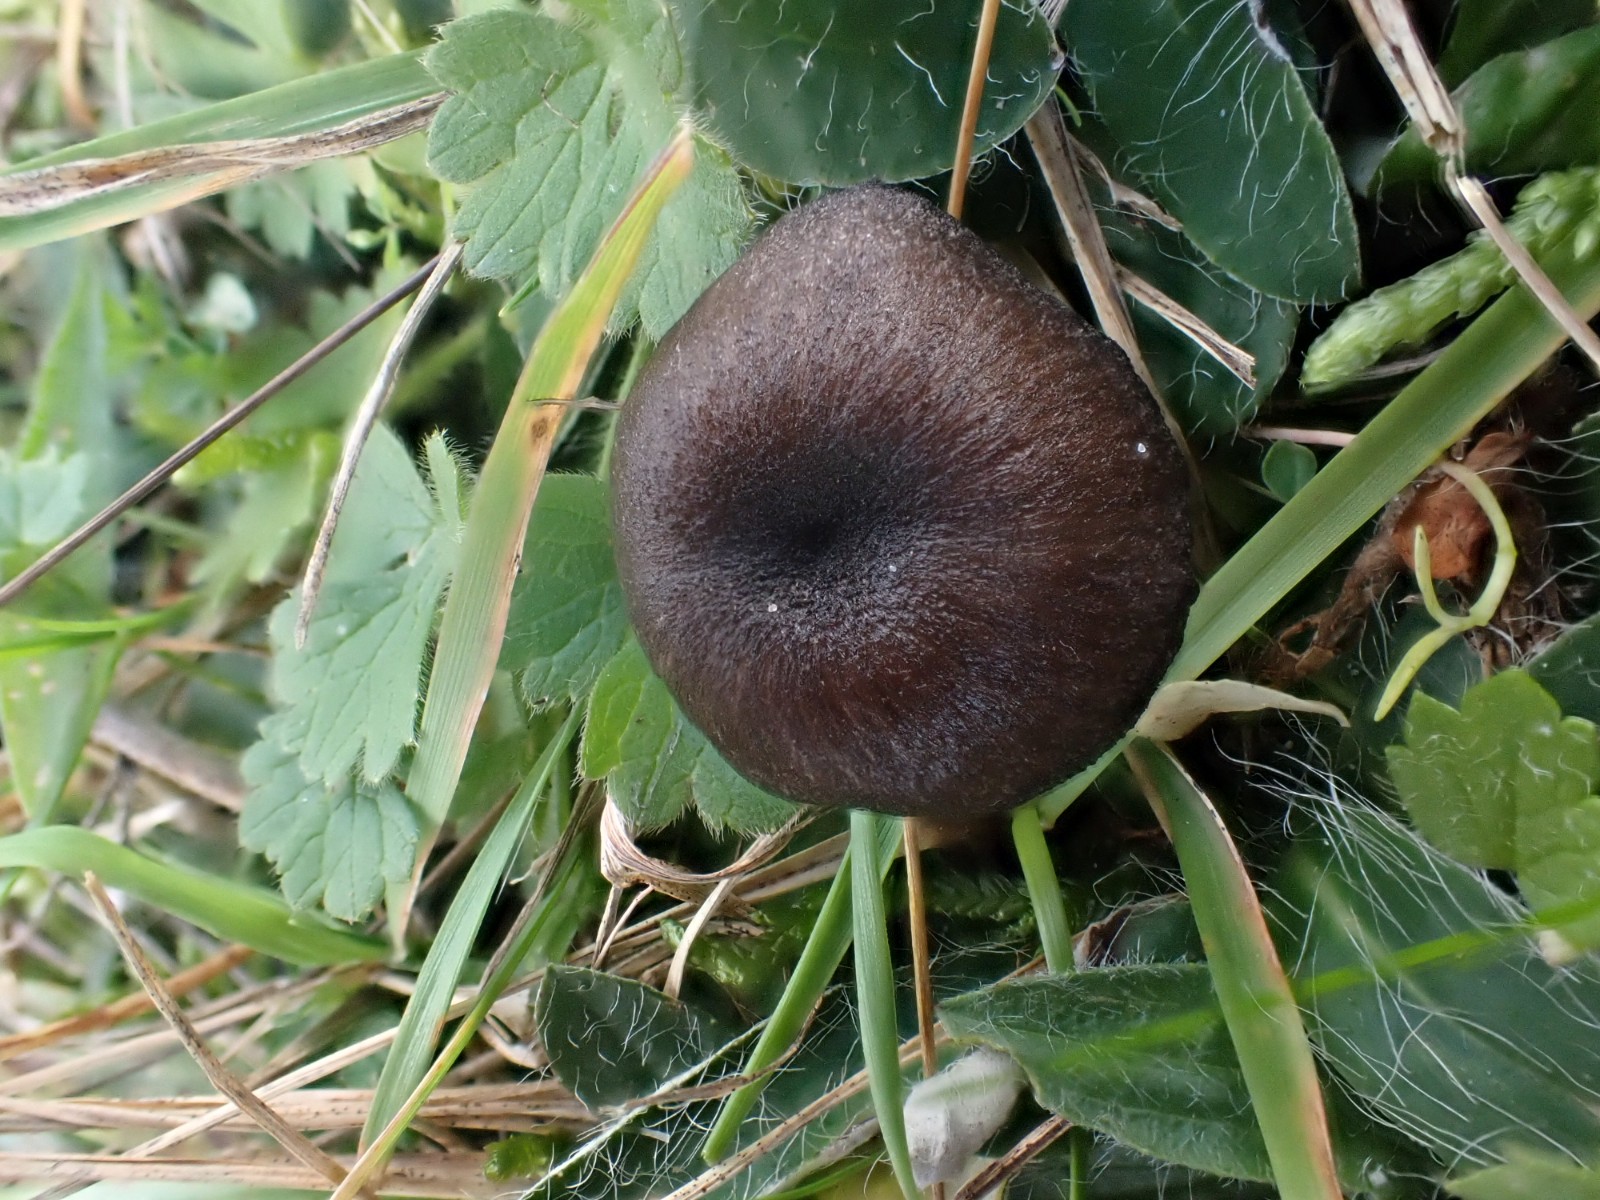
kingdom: Fungi
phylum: Basidiomycota
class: Agaricomycetes
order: Agaricales
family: Entolomataceae
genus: Entoloma
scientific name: Entoloma
